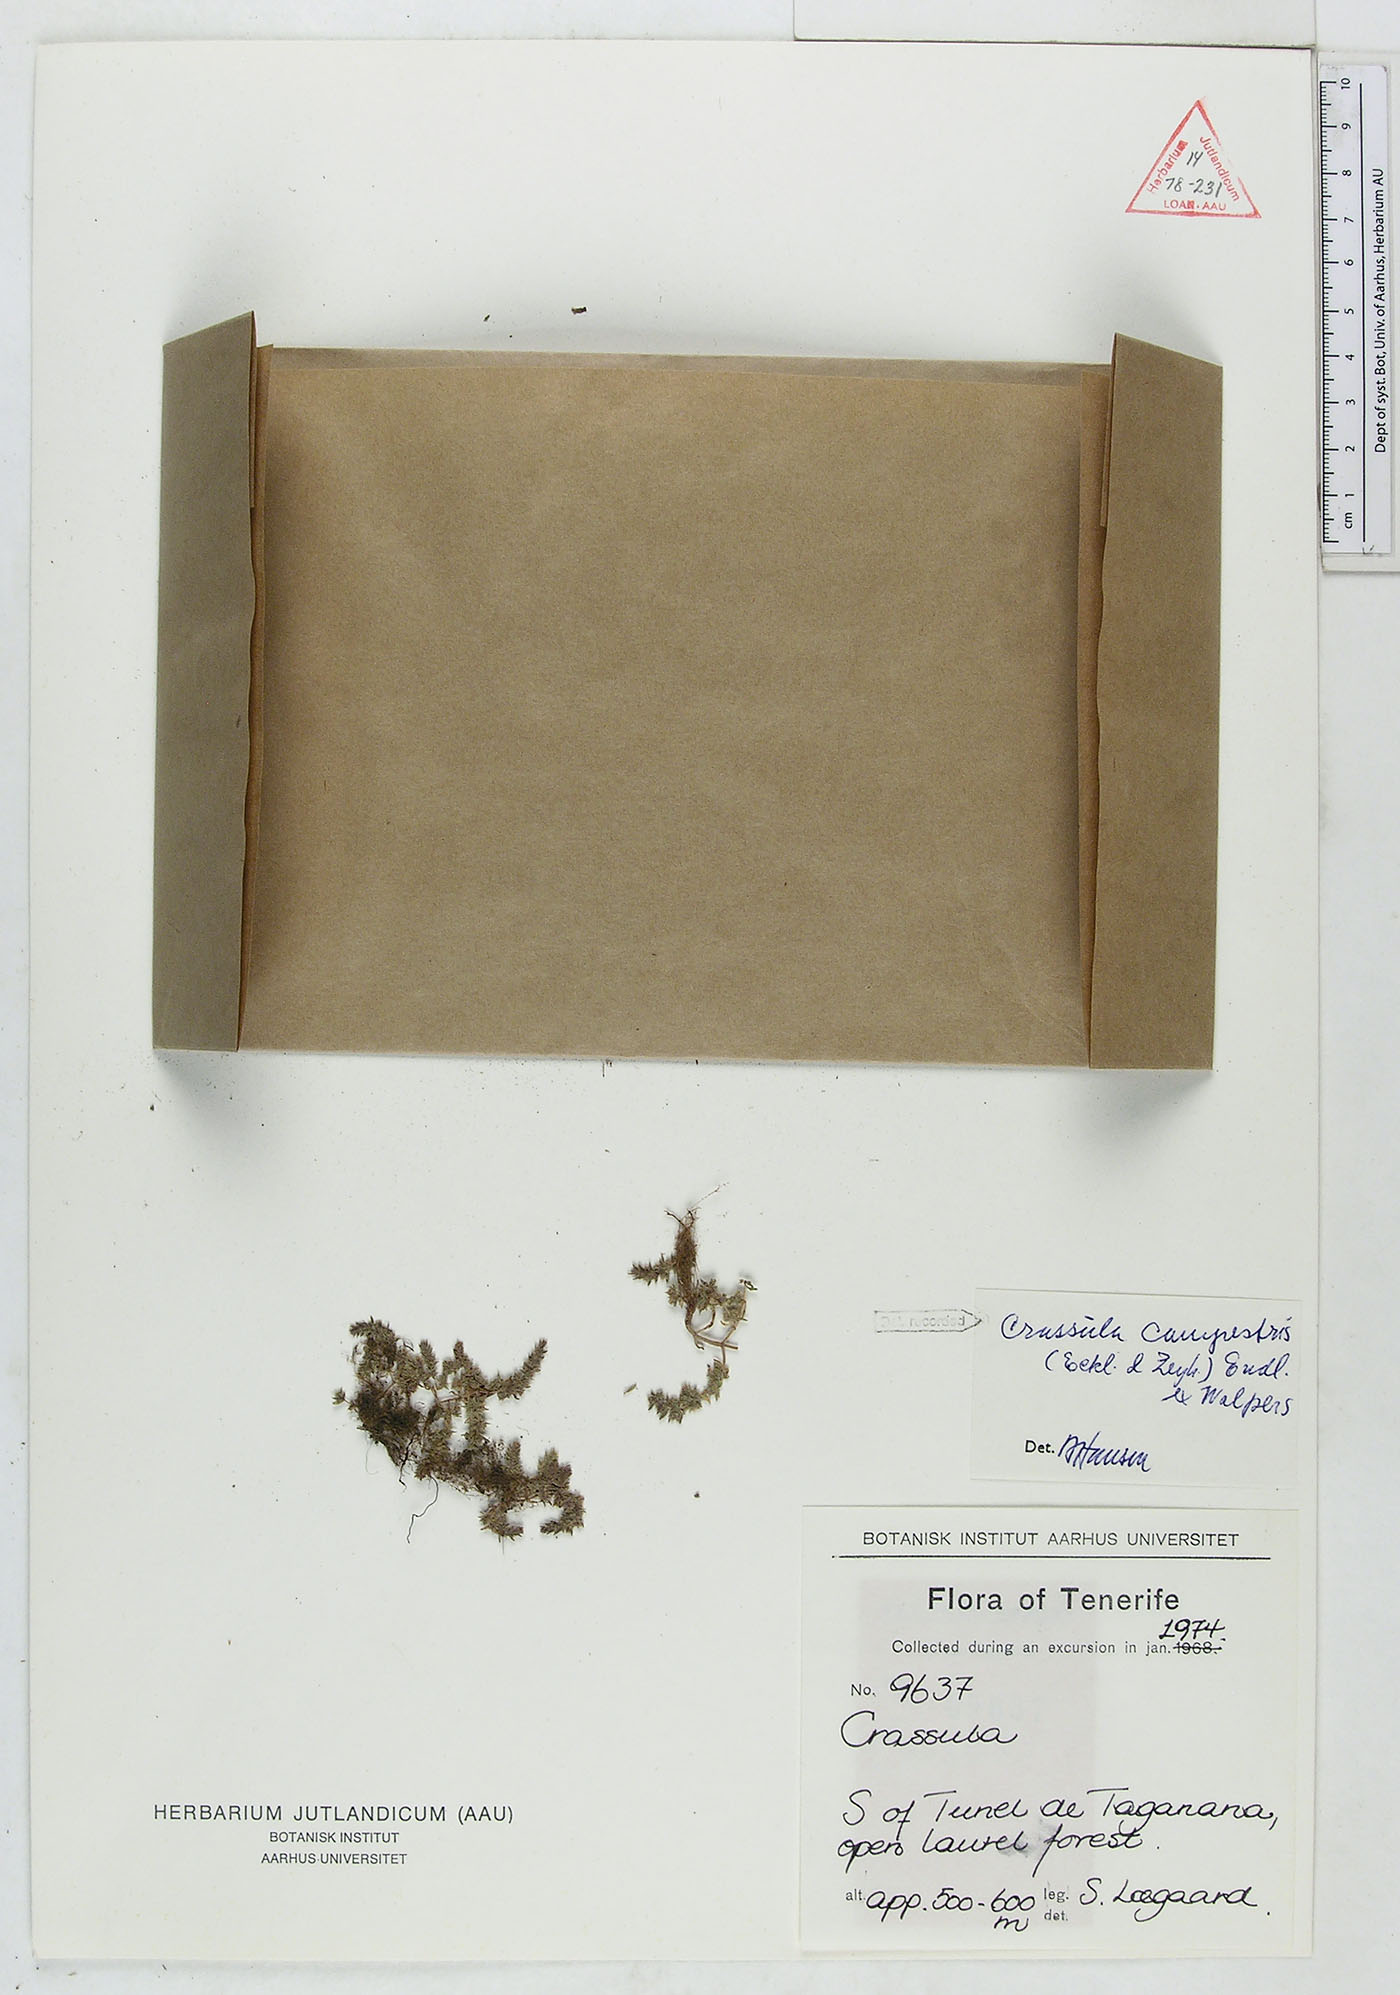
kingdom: Plantae
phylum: Tracheophyta
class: Magnoliopsida
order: Saxifragales
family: Crassulaceae
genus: Crassula
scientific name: Crassula campestris
